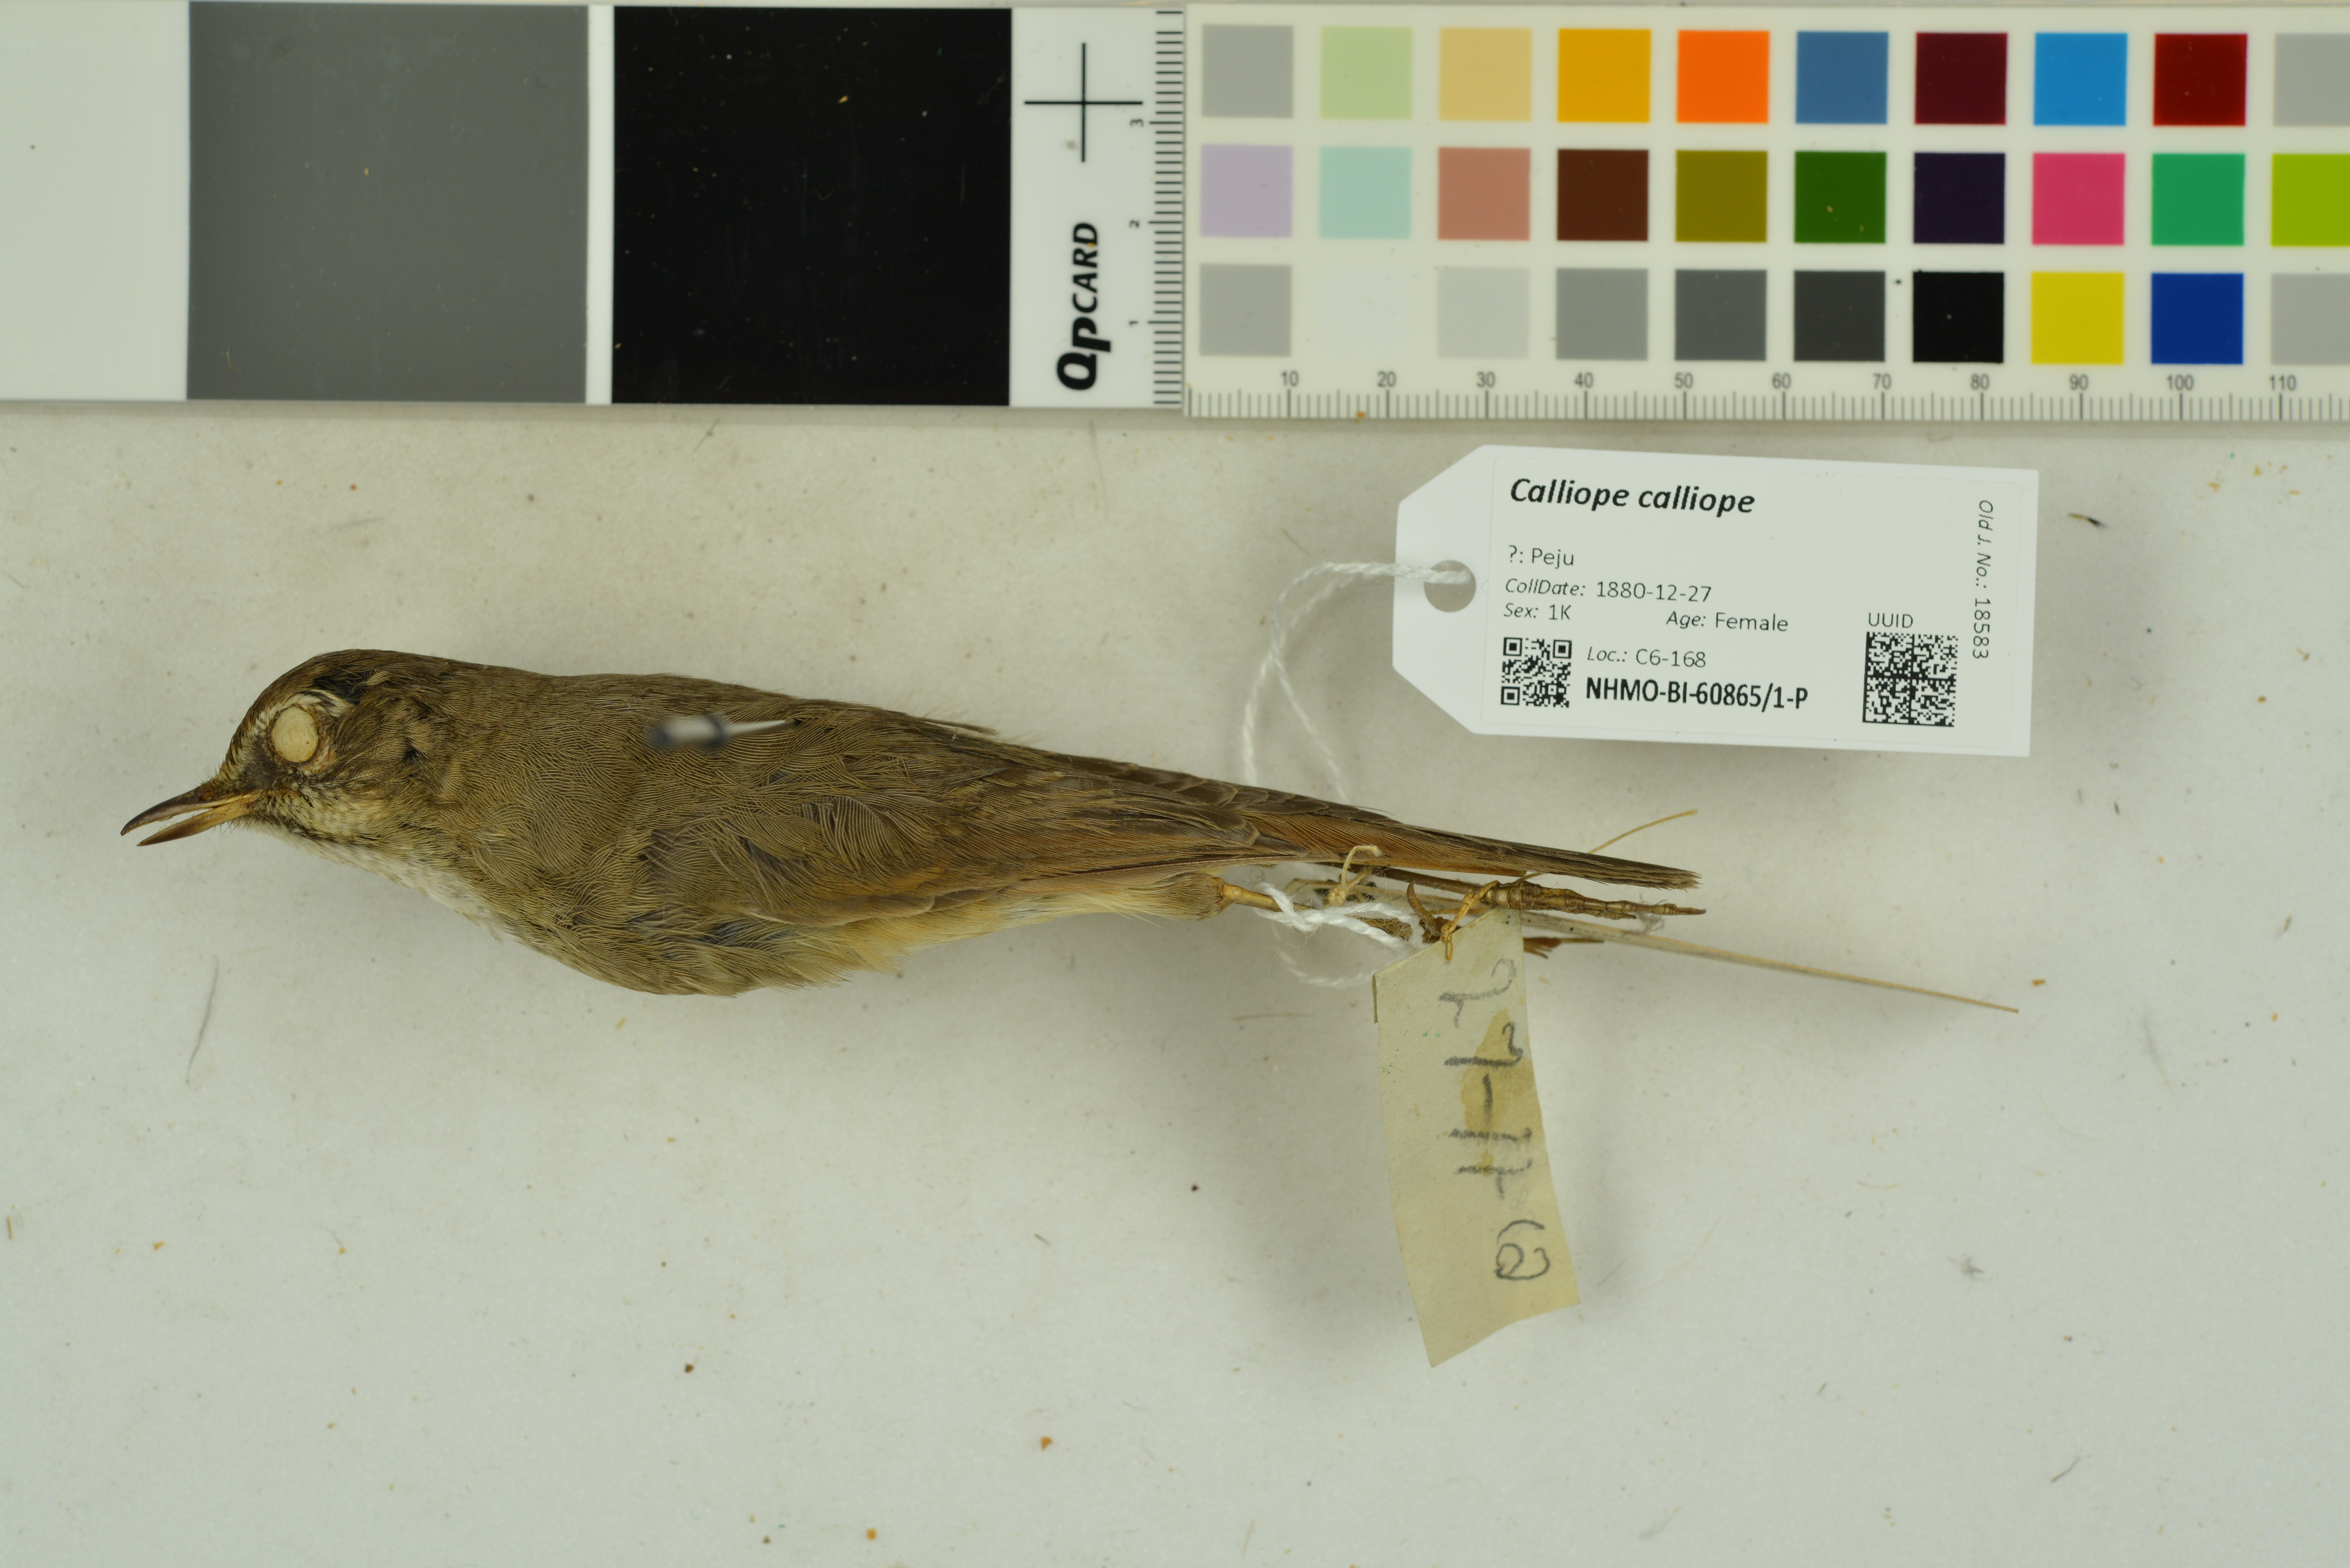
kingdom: Animalia
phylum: Chordata
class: Aves
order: Passeriformes
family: Muscicapidae
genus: Luscinia
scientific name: Luscinia calliope
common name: Siberian rubythroat
